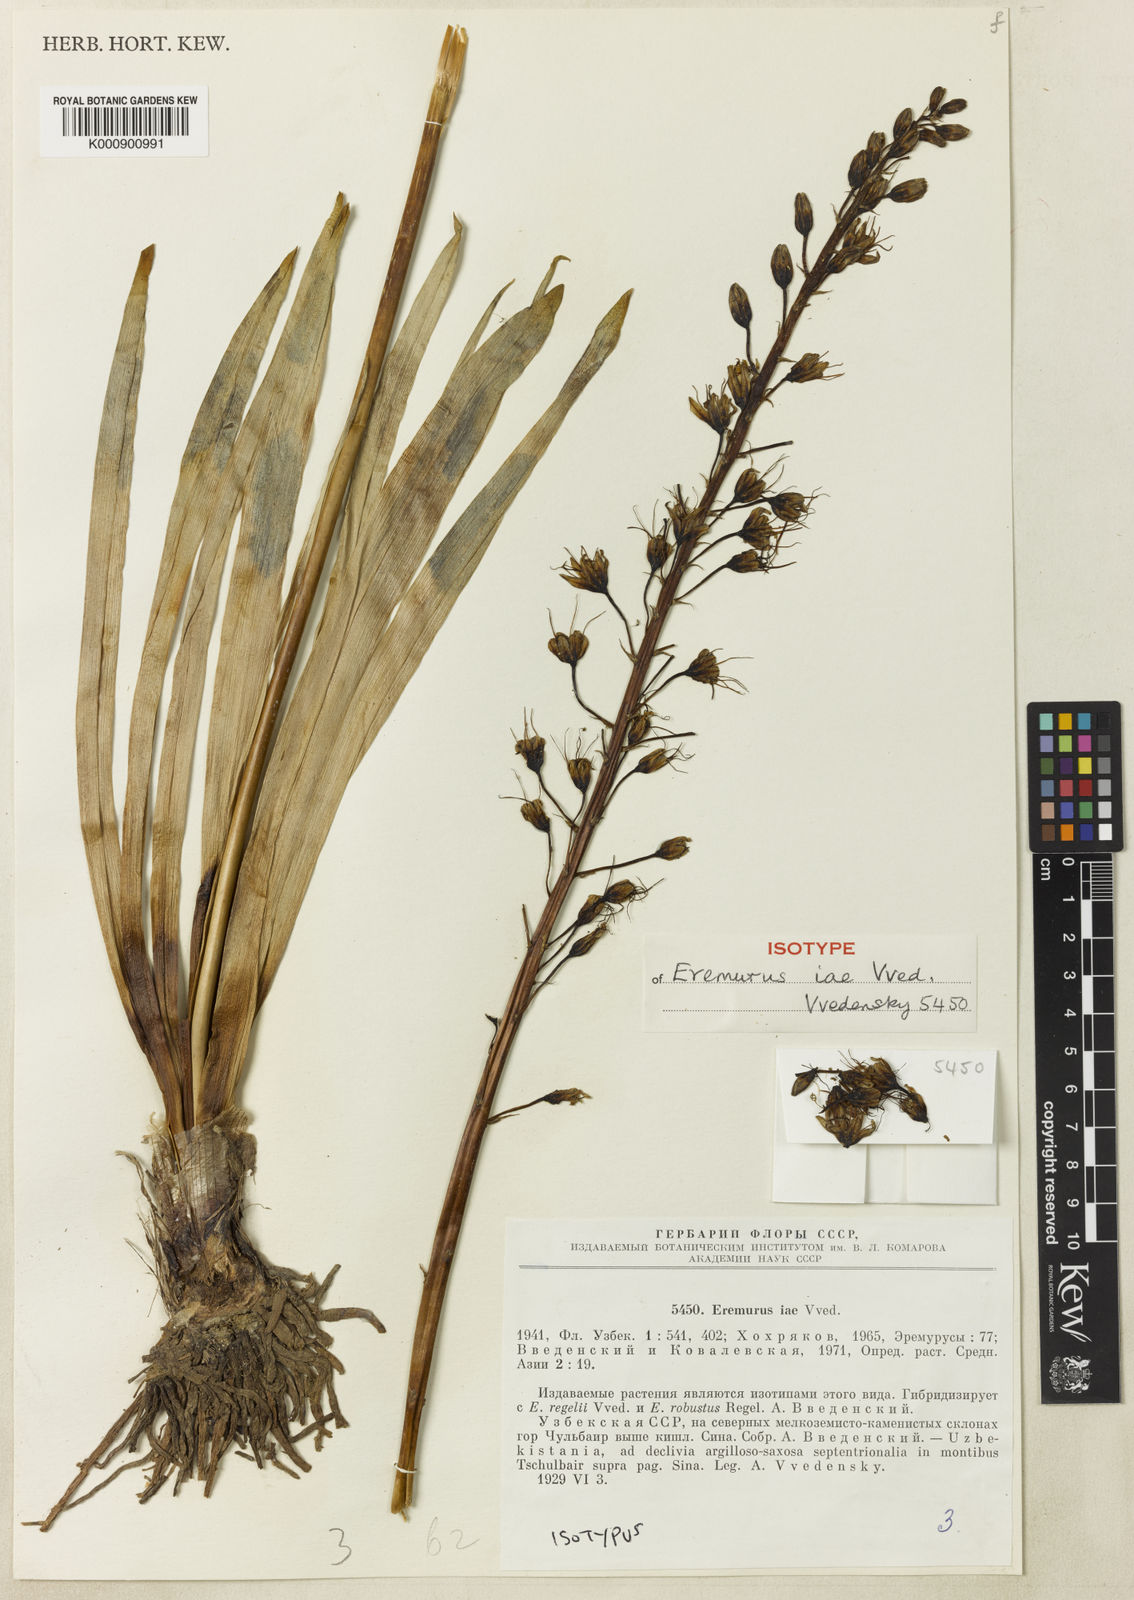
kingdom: Plantae
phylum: Tracheophyta
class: Liliopsida
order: Asparagales
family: Asphodelaceae
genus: Eremurus
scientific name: Eremurus iae
